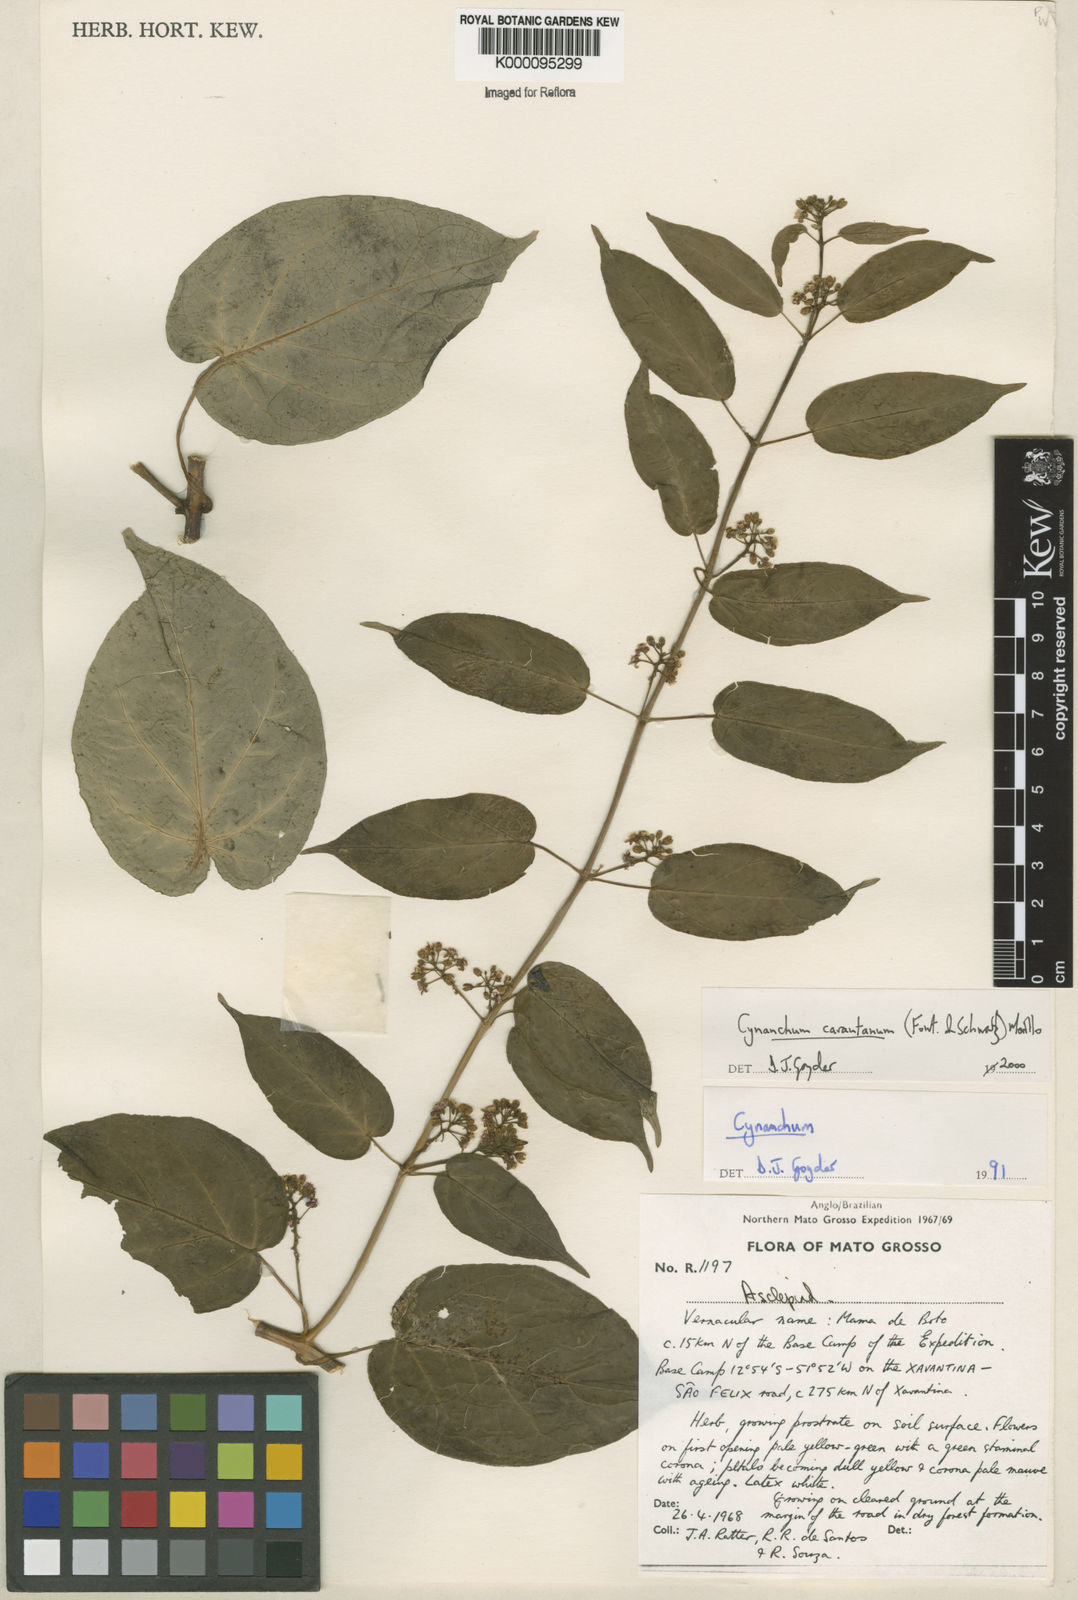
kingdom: Plantae
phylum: Tracheophyta
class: Magnoliopsida
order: Gentianales
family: Apocynaceae
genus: Cynanchum
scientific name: Cynanchum carautanum
